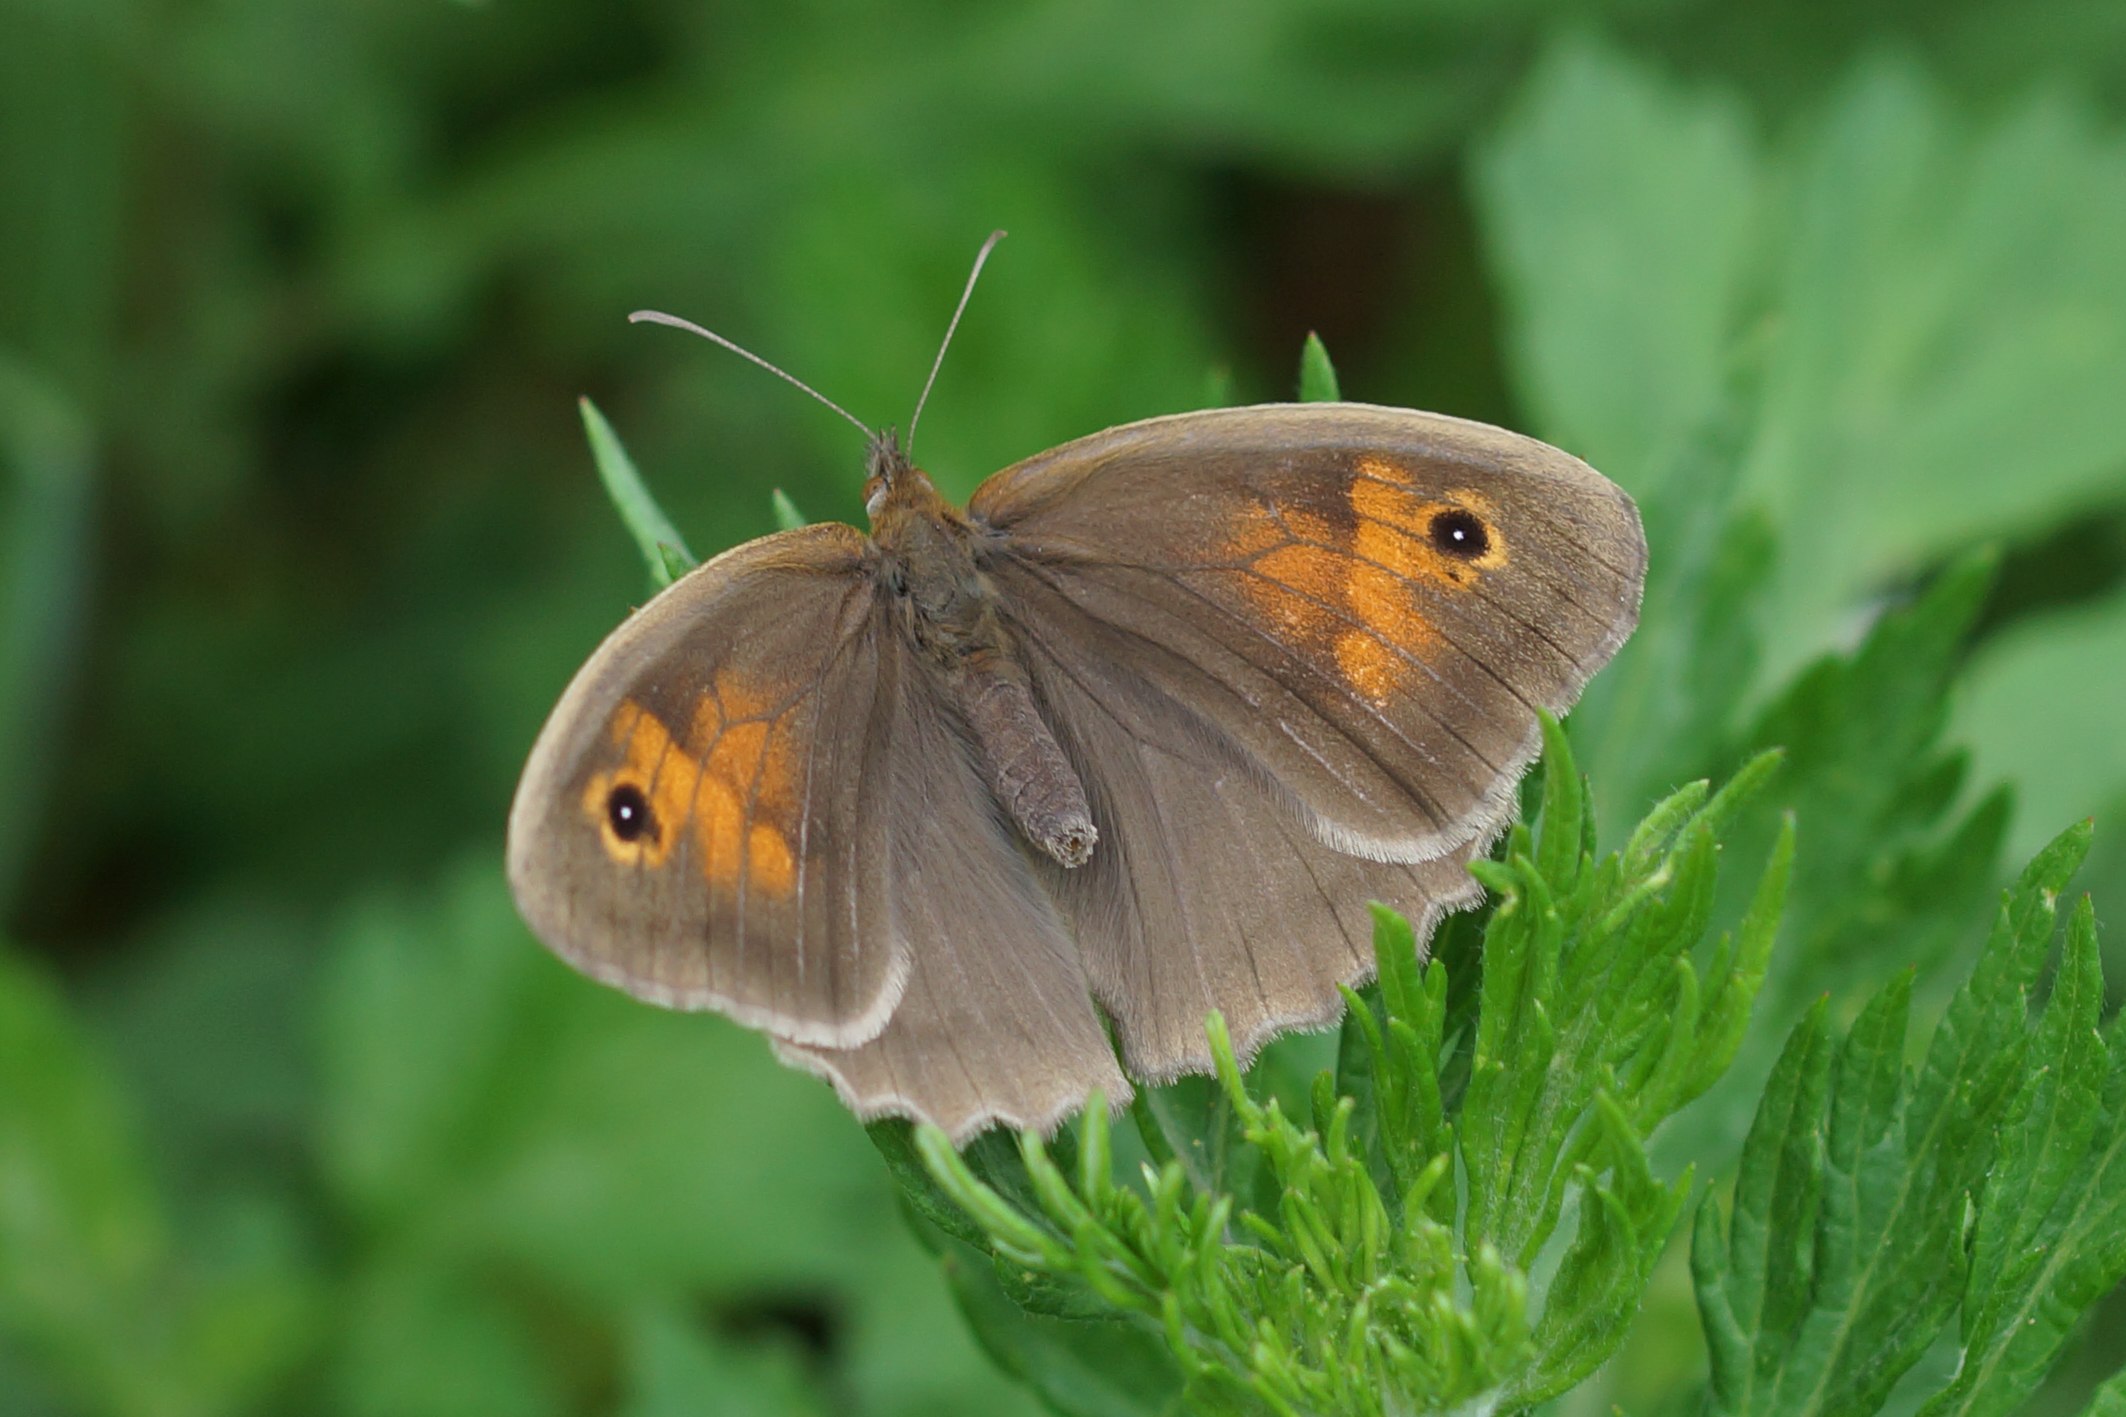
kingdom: Animalia
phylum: Arthropoda
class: Insecta
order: Lepidoptera
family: Nymphalidae
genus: Maniola
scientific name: Maniola jurtina
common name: Græsrandøje
